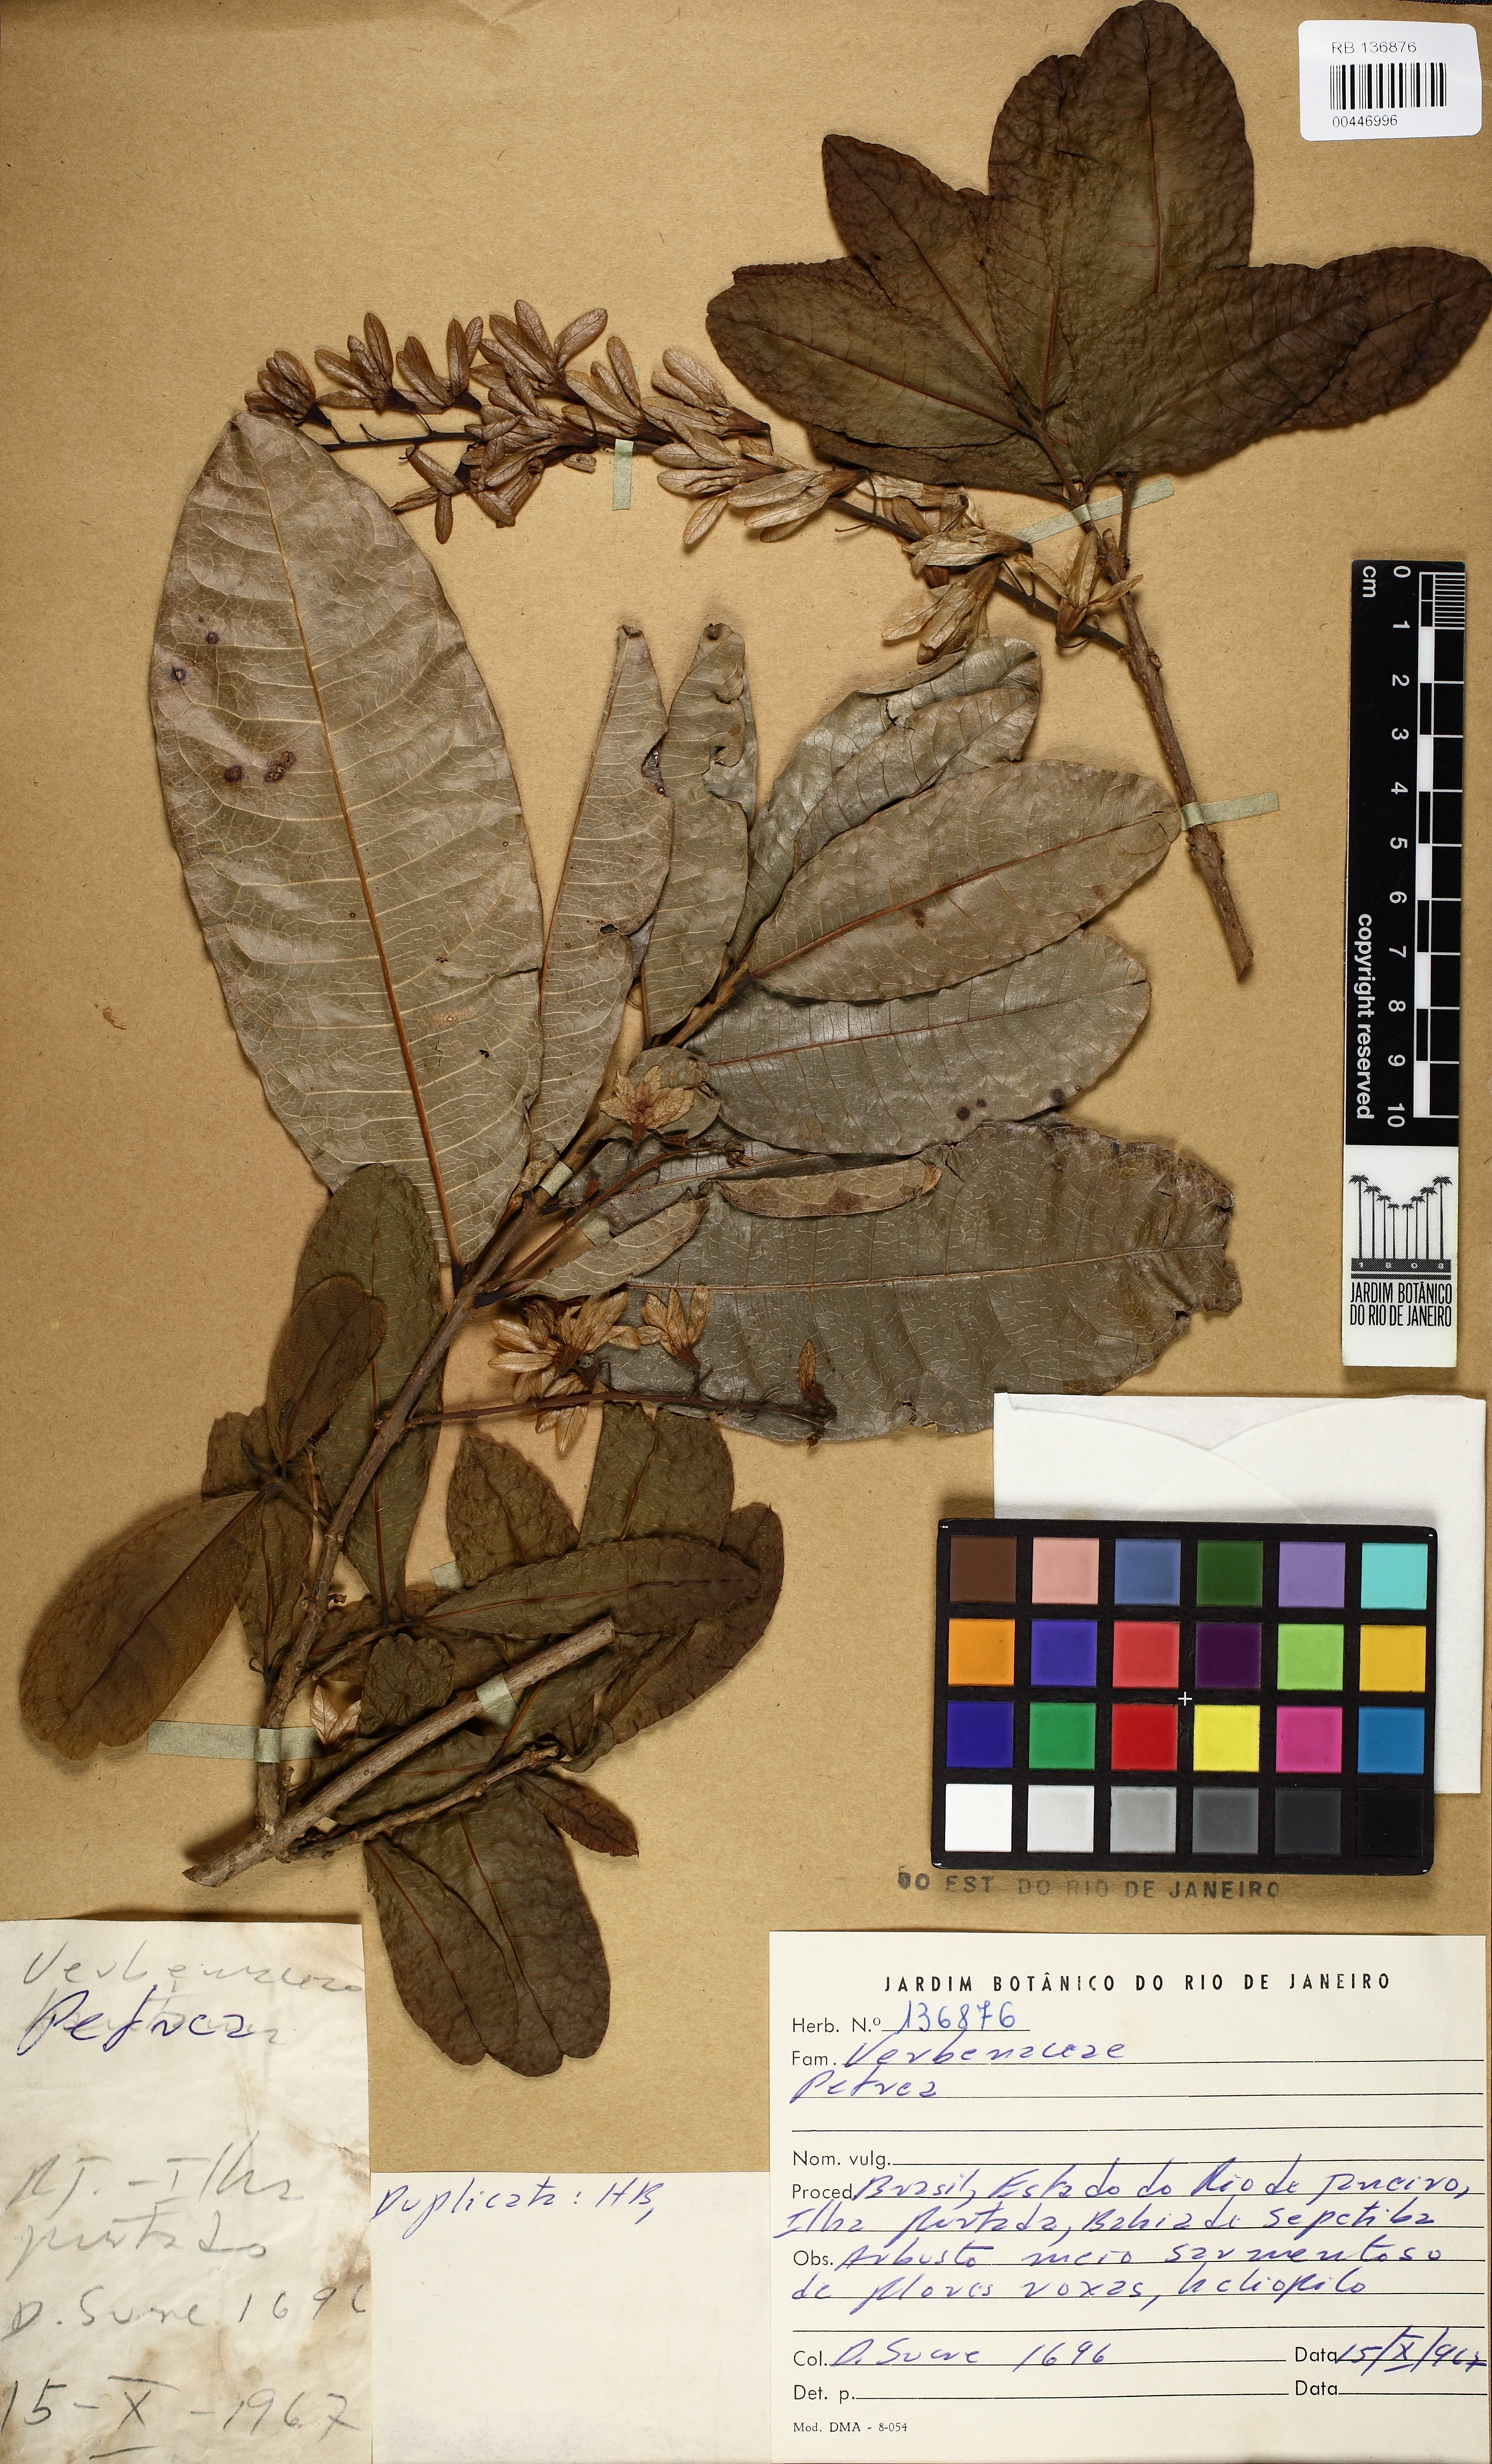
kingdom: Plantae
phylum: Tracheophyta
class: Magnoliopsida
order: Lamiales
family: Verbenaceae
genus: Petrea
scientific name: Petrea
